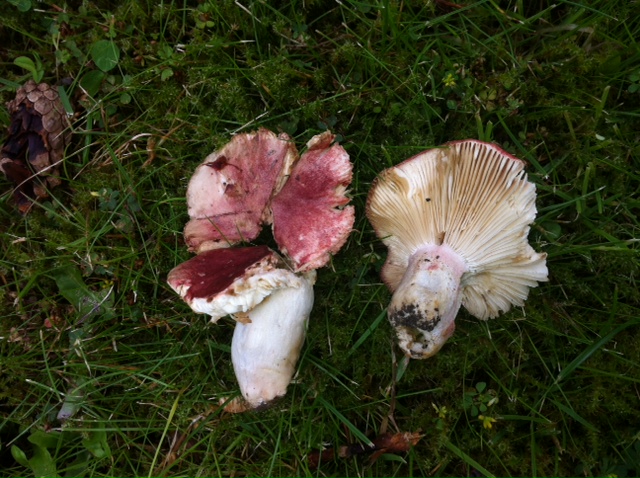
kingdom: Fungi
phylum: Basidiomycota
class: Agaricomycetes
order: Russulales
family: Russulaceae
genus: Russula
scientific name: Russula sanguinea
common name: blodrød skørhat
